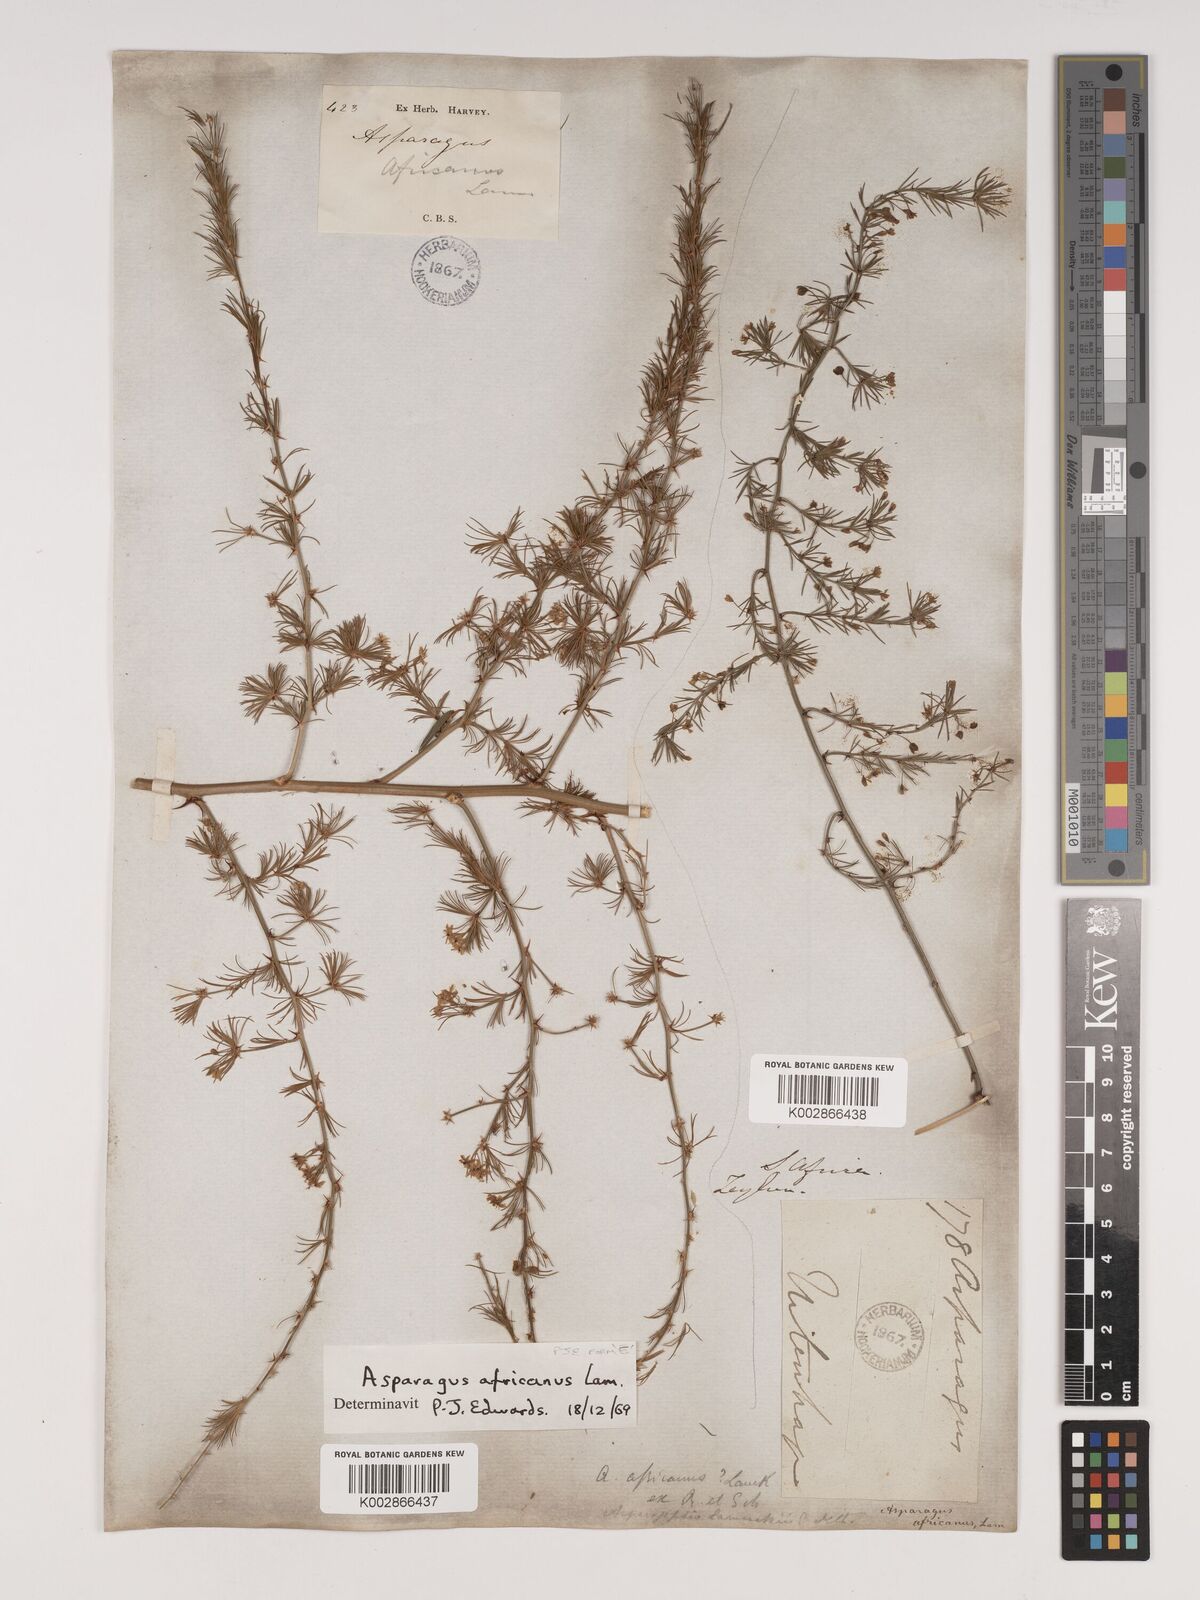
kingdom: Plantae
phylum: Tracheophyta
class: Liliopsida
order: Asparagales
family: Asparagaceae
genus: Asparagus
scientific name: Asparagus africanus
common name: Asparagus-fern
